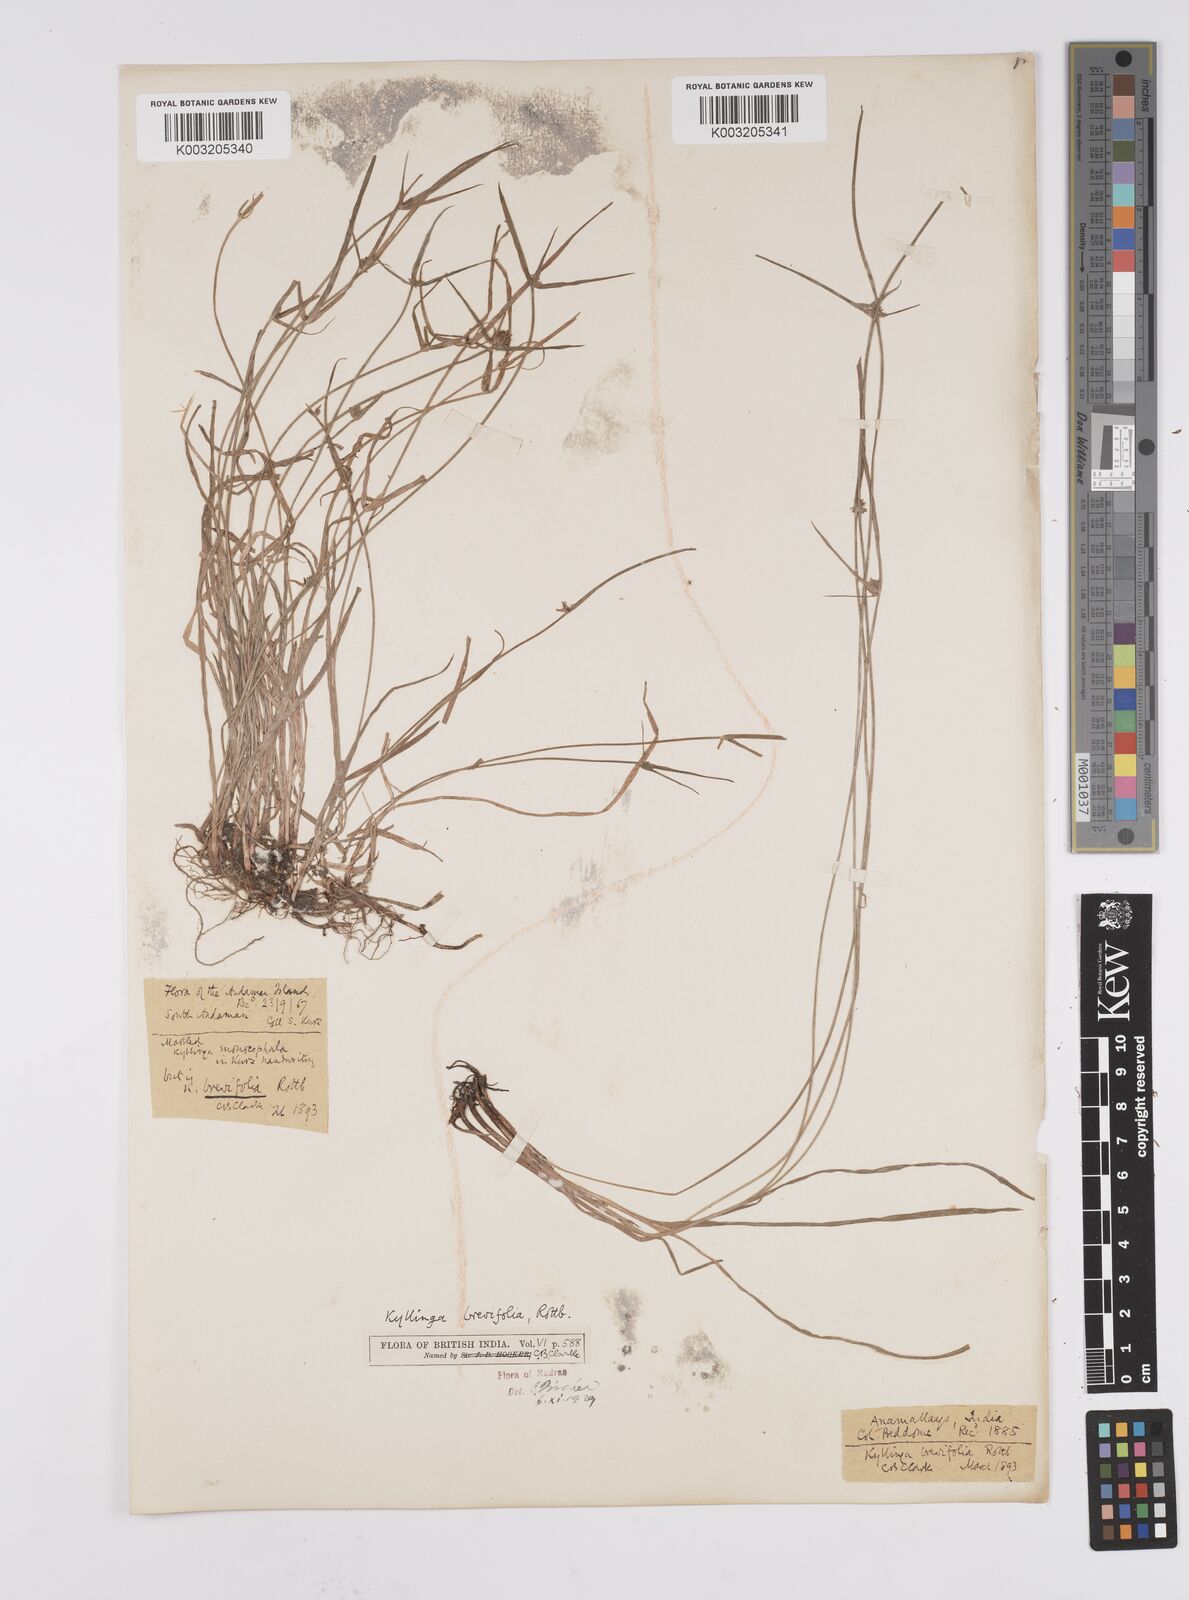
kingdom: Plantae
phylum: Tracheophyta
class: Liliopsida
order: Poales
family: Cyperaceae
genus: Cyperus
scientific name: Cyperus brevifolius
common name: Globe kyllinga
